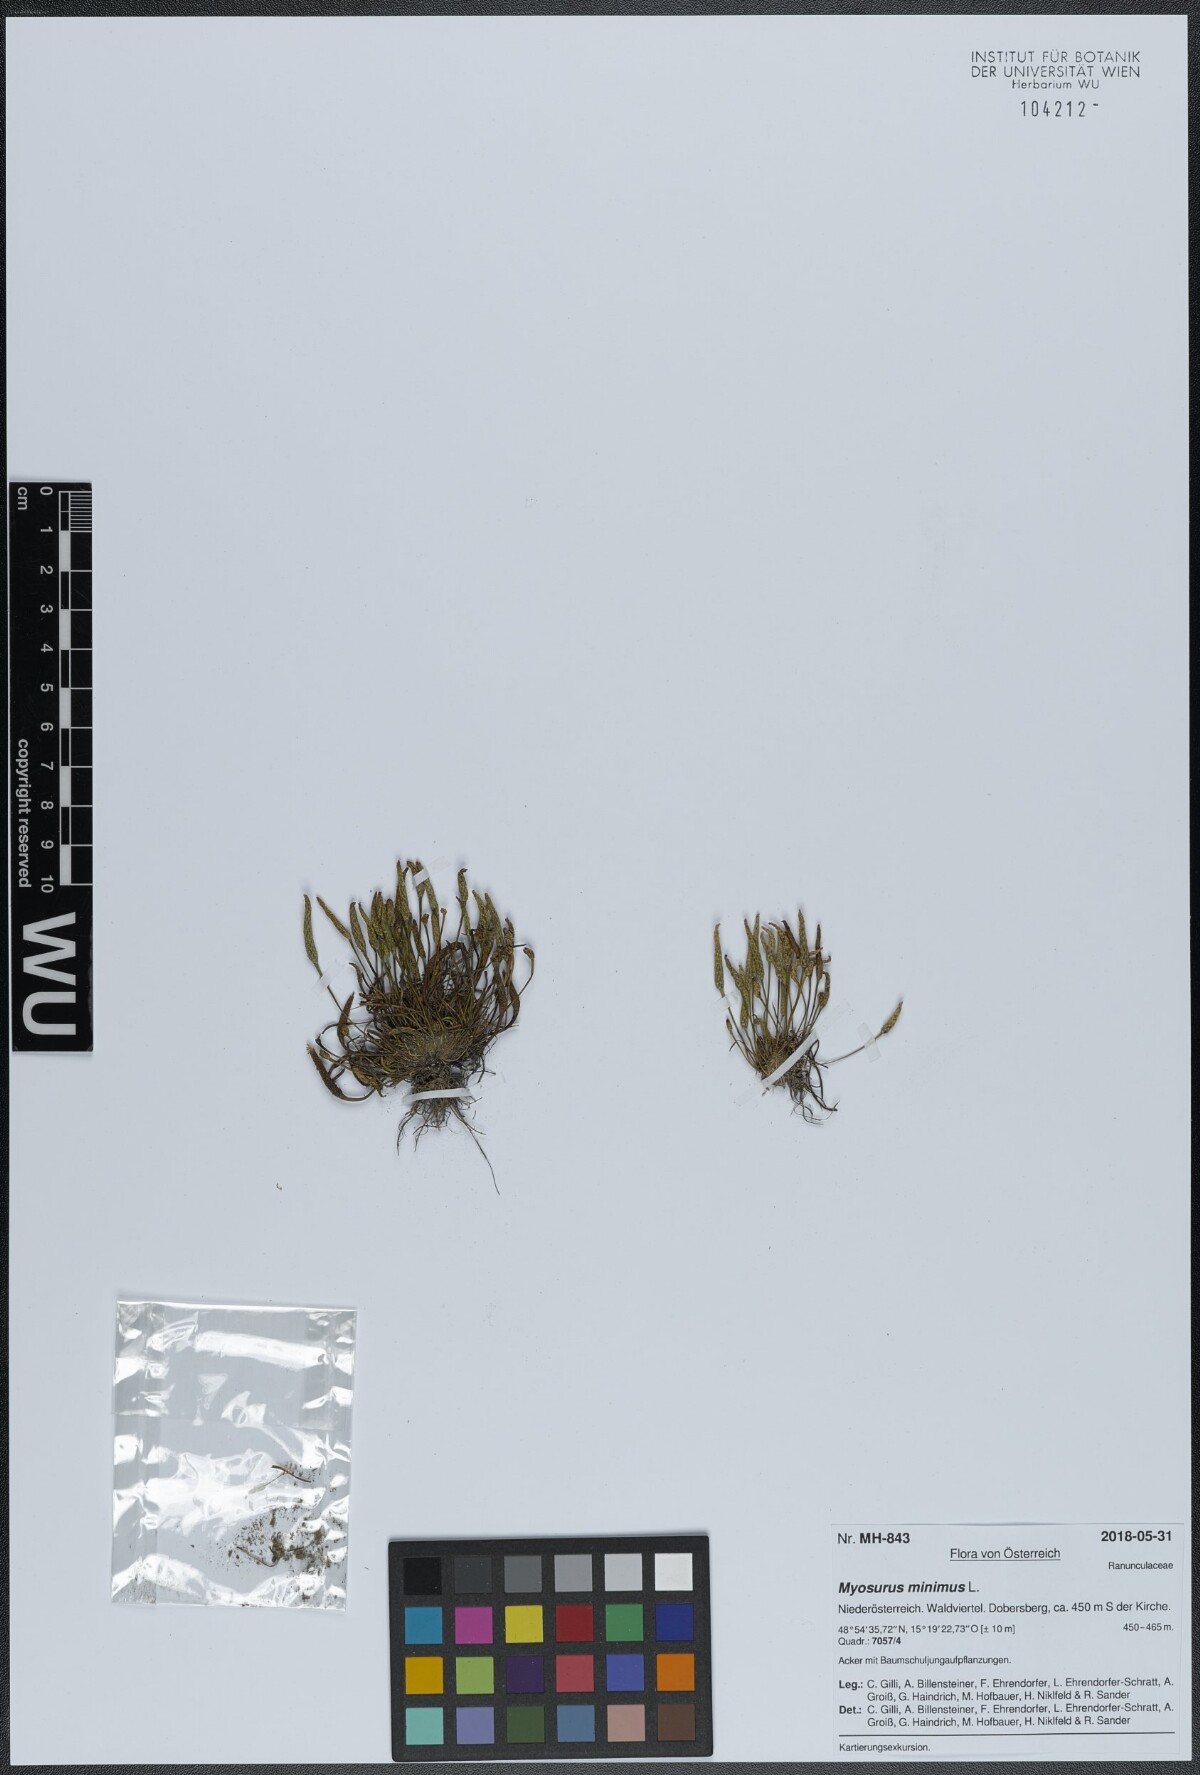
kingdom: Plantae
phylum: Tracheophyta
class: Magnoliopsida
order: Ranunculales
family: Ranunculaceae
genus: Myosurus
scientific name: Myosurus minimus
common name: Mousetail
